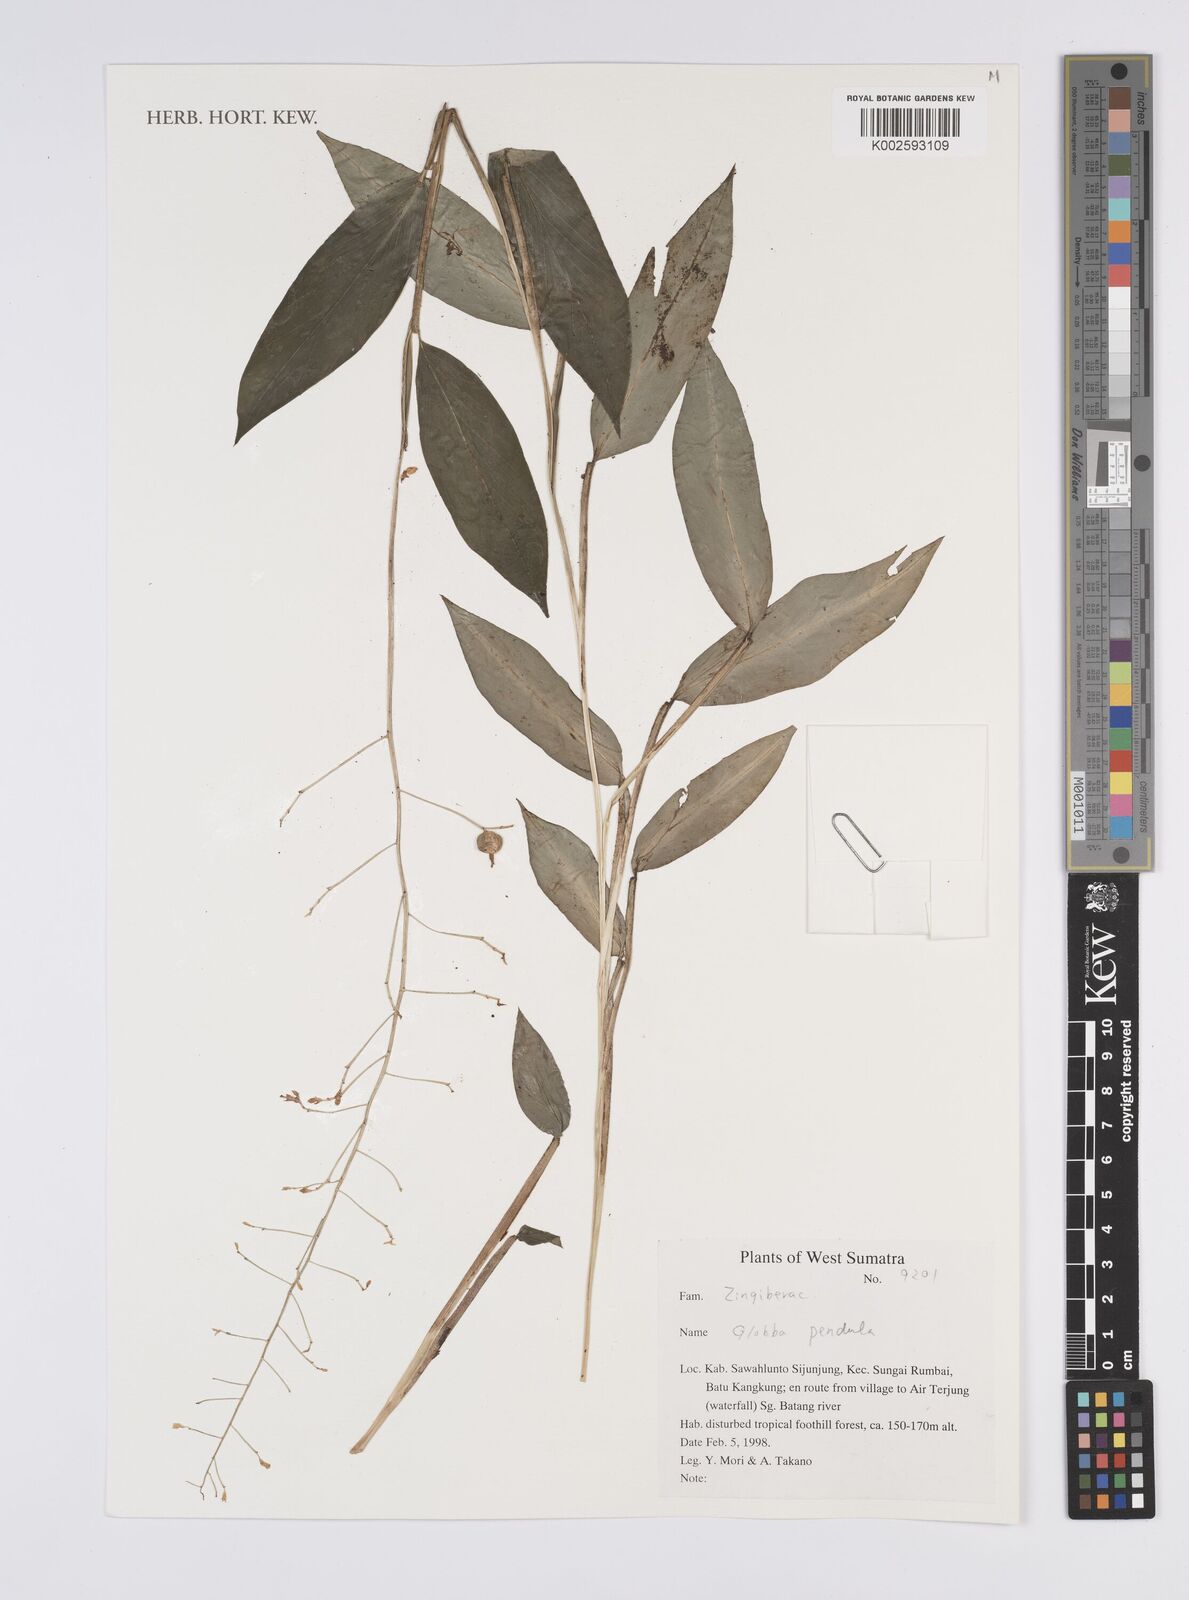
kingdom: Plantae
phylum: Tracheophyta
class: Liliopsida
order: Zingiberales
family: Zingiberaceae
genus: Globba
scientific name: Globba pendula
